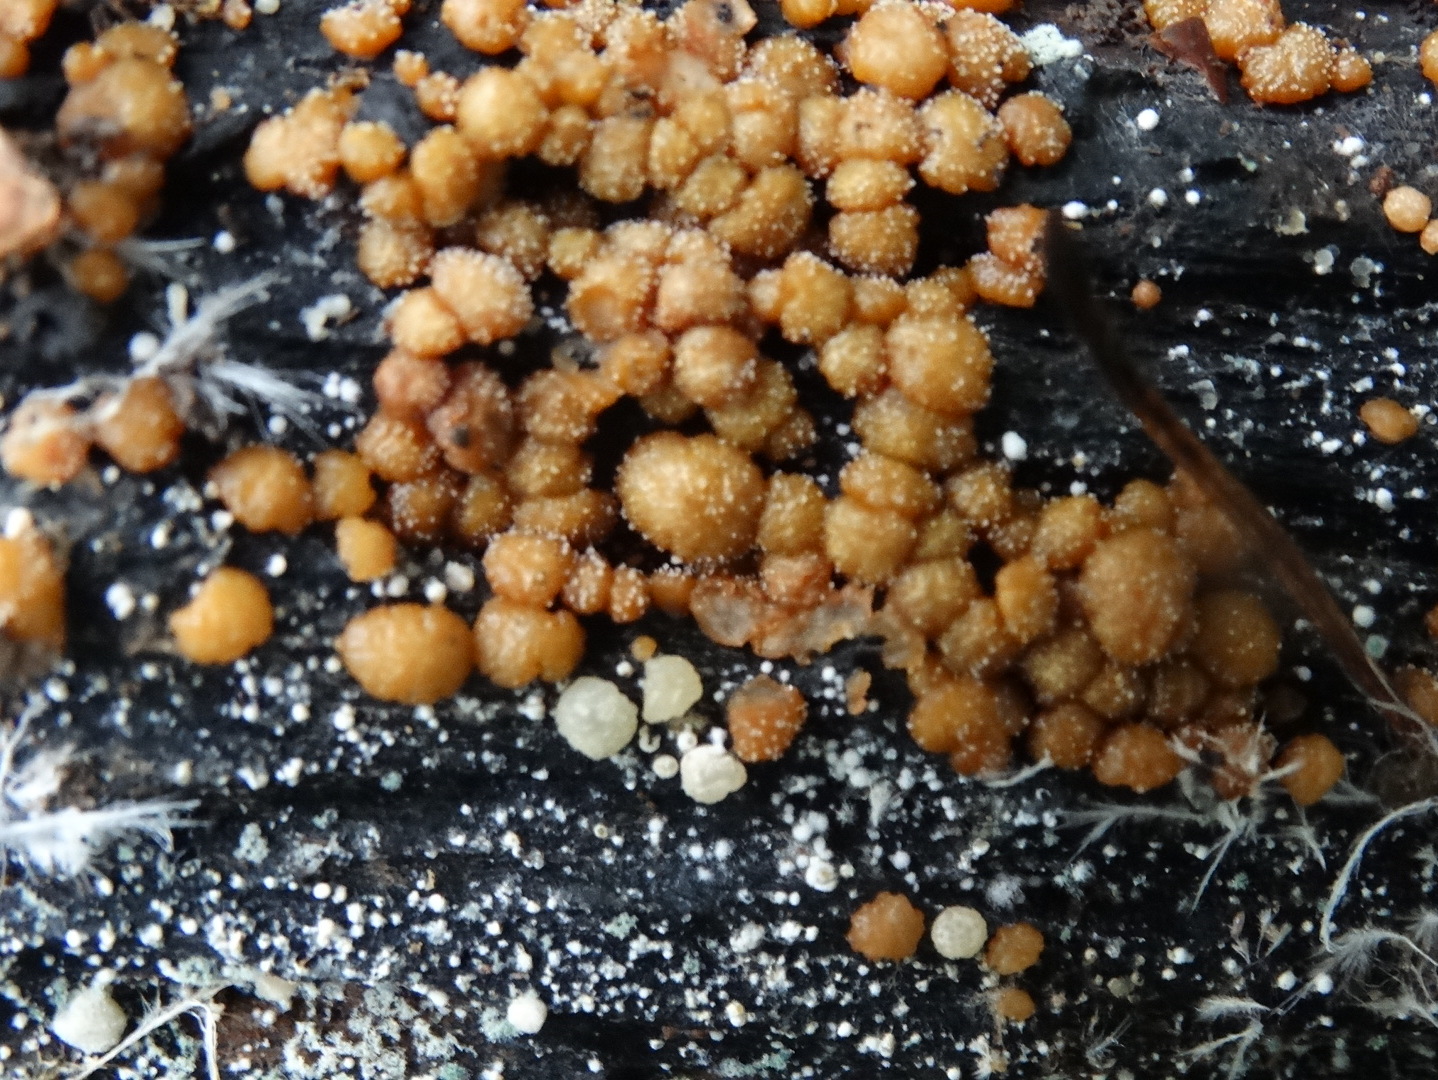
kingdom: Fungi
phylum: Ascomycota
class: Sordariomycetes
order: Hypocreales
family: Hypocreaceae
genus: Trichoderma
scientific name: Trichoderma
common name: kødkerne
